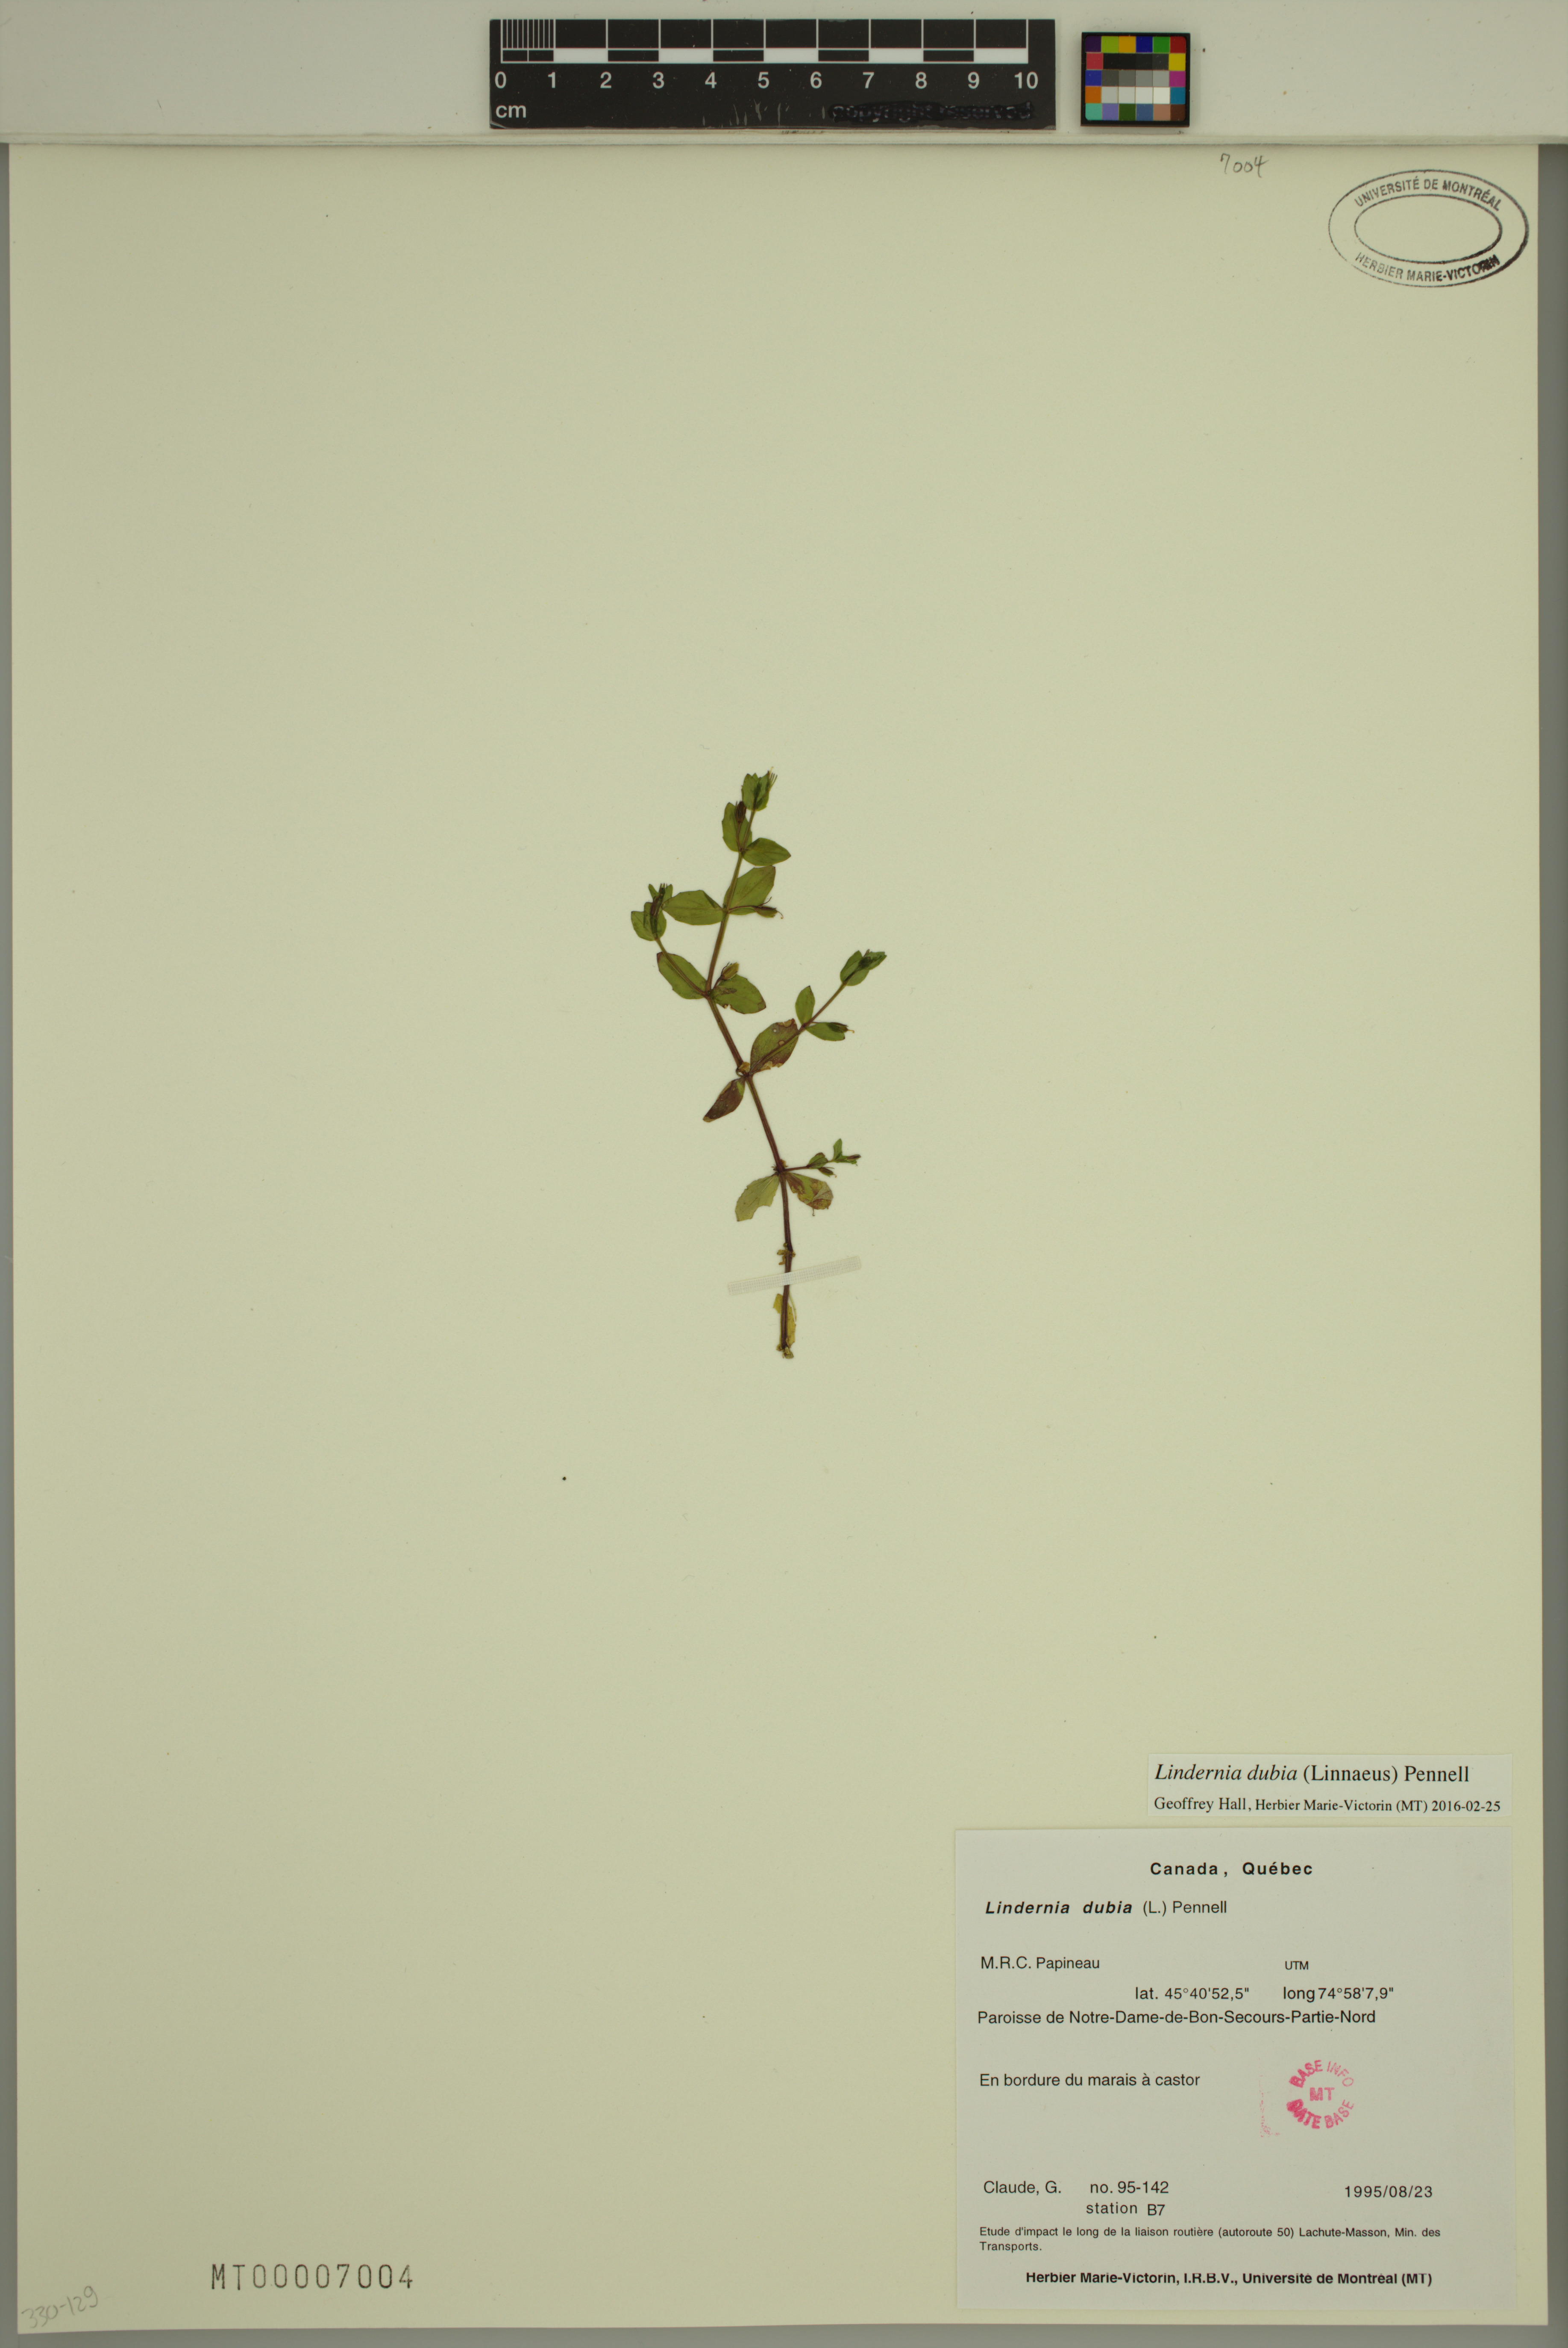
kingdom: Plantae
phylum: Tracheophyta
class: Magnoliopsida
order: Lamiales
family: Linderniaceae
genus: Lindernia
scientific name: Lindernia dubia
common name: Annual false pimpernel
